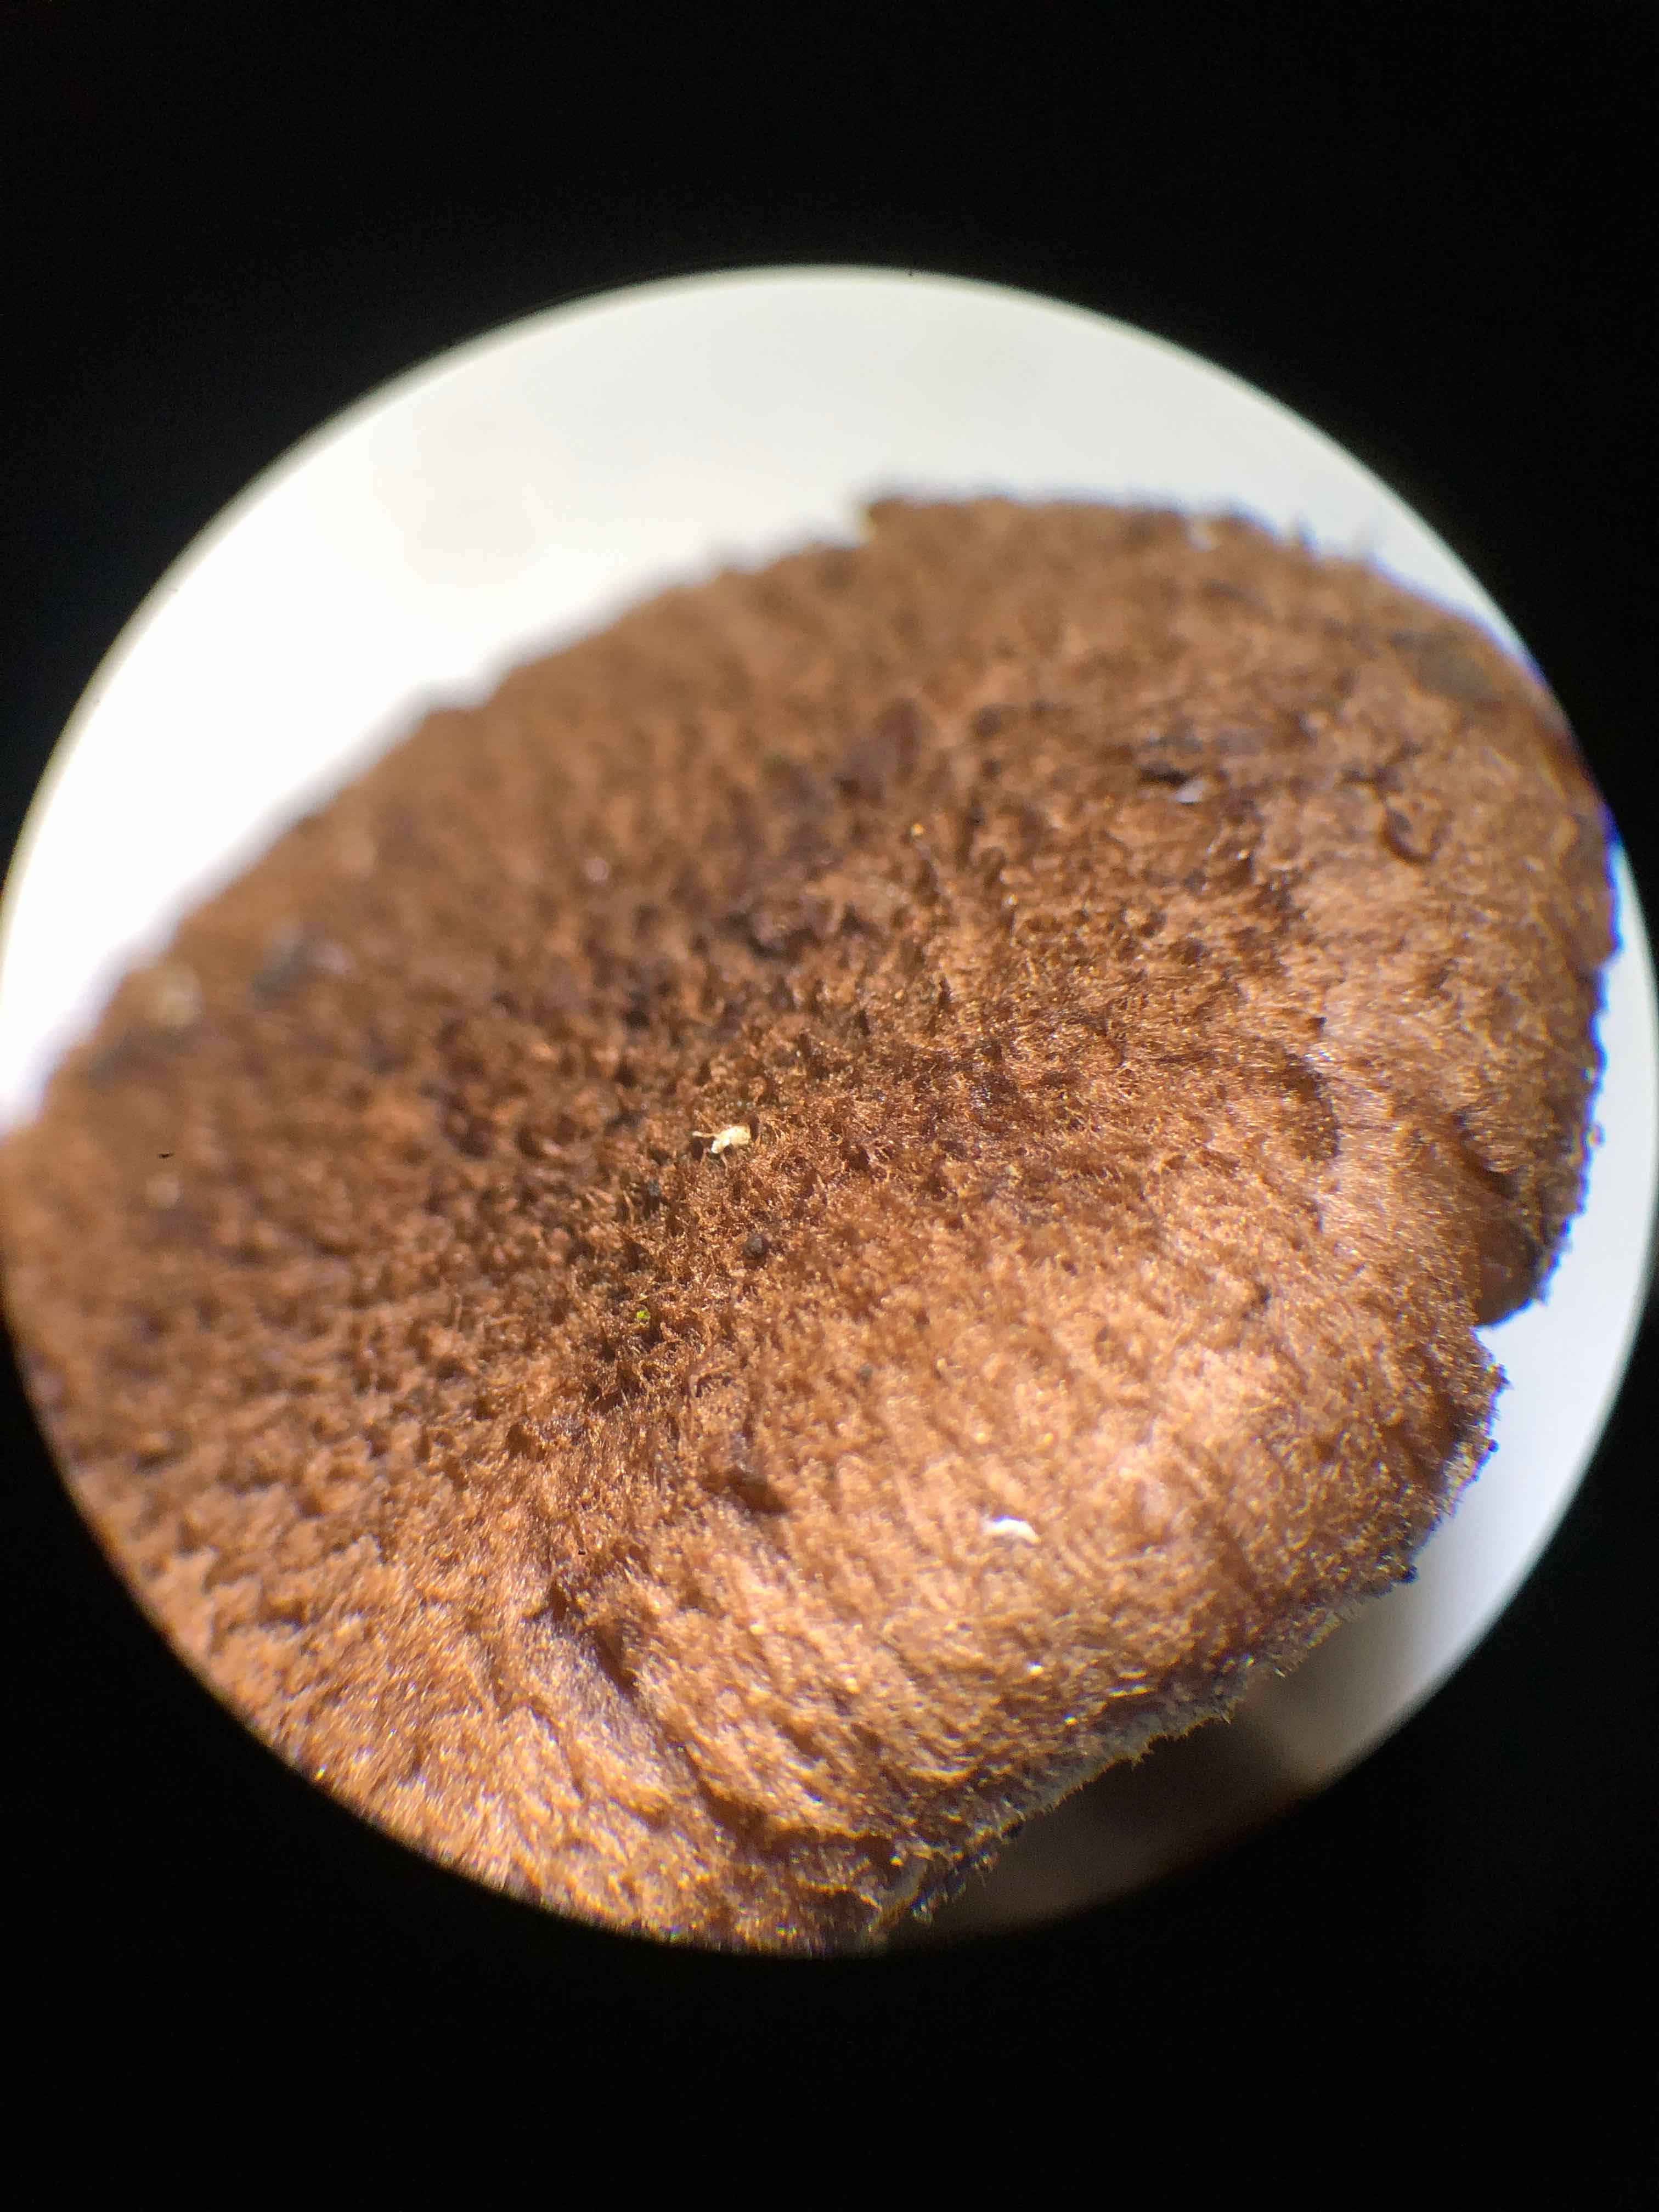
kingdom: Fungi
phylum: Basidiomycota
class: Agaricomycetes
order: Agaricales
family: Inocybaceae
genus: Inocybe
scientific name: Inocybe lanuginosa
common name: uldskællet trævlhat
